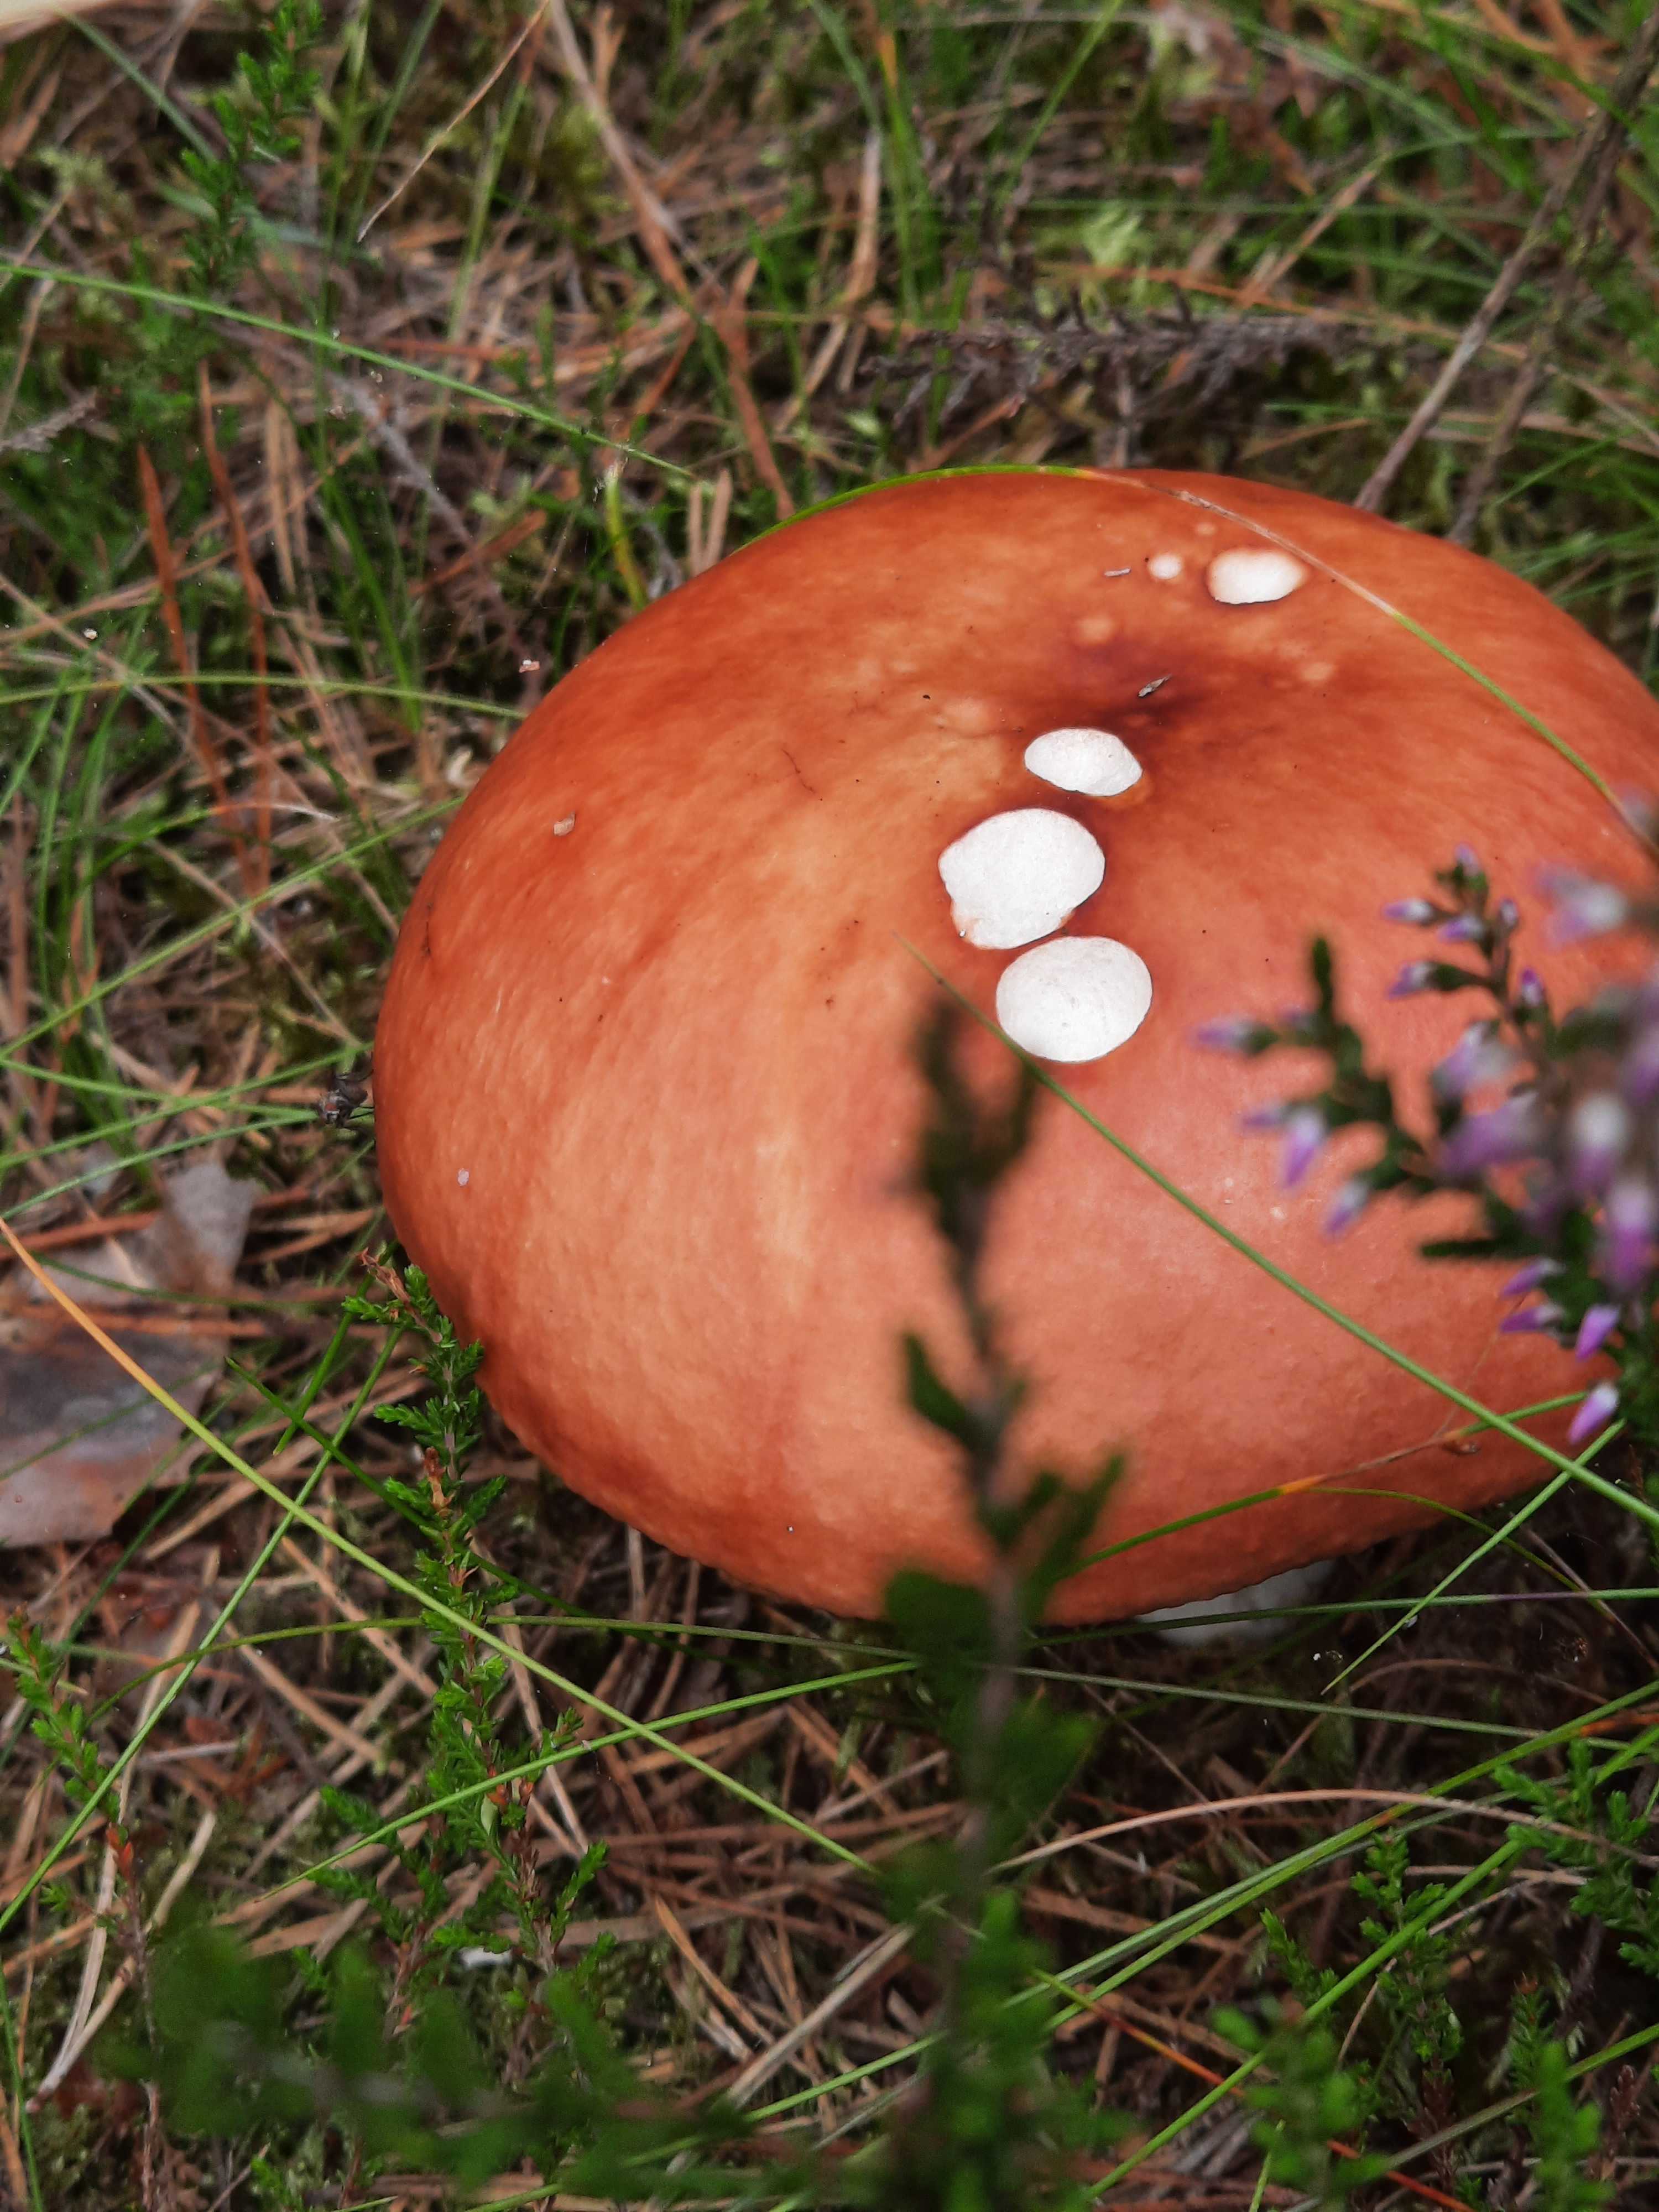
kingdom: Fungi
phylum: Basidiomycota
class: Agaricomycetes
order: Russulales
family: Russulaceae
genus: Russula
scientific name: Russula paludosa
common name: prægtig skørhat
